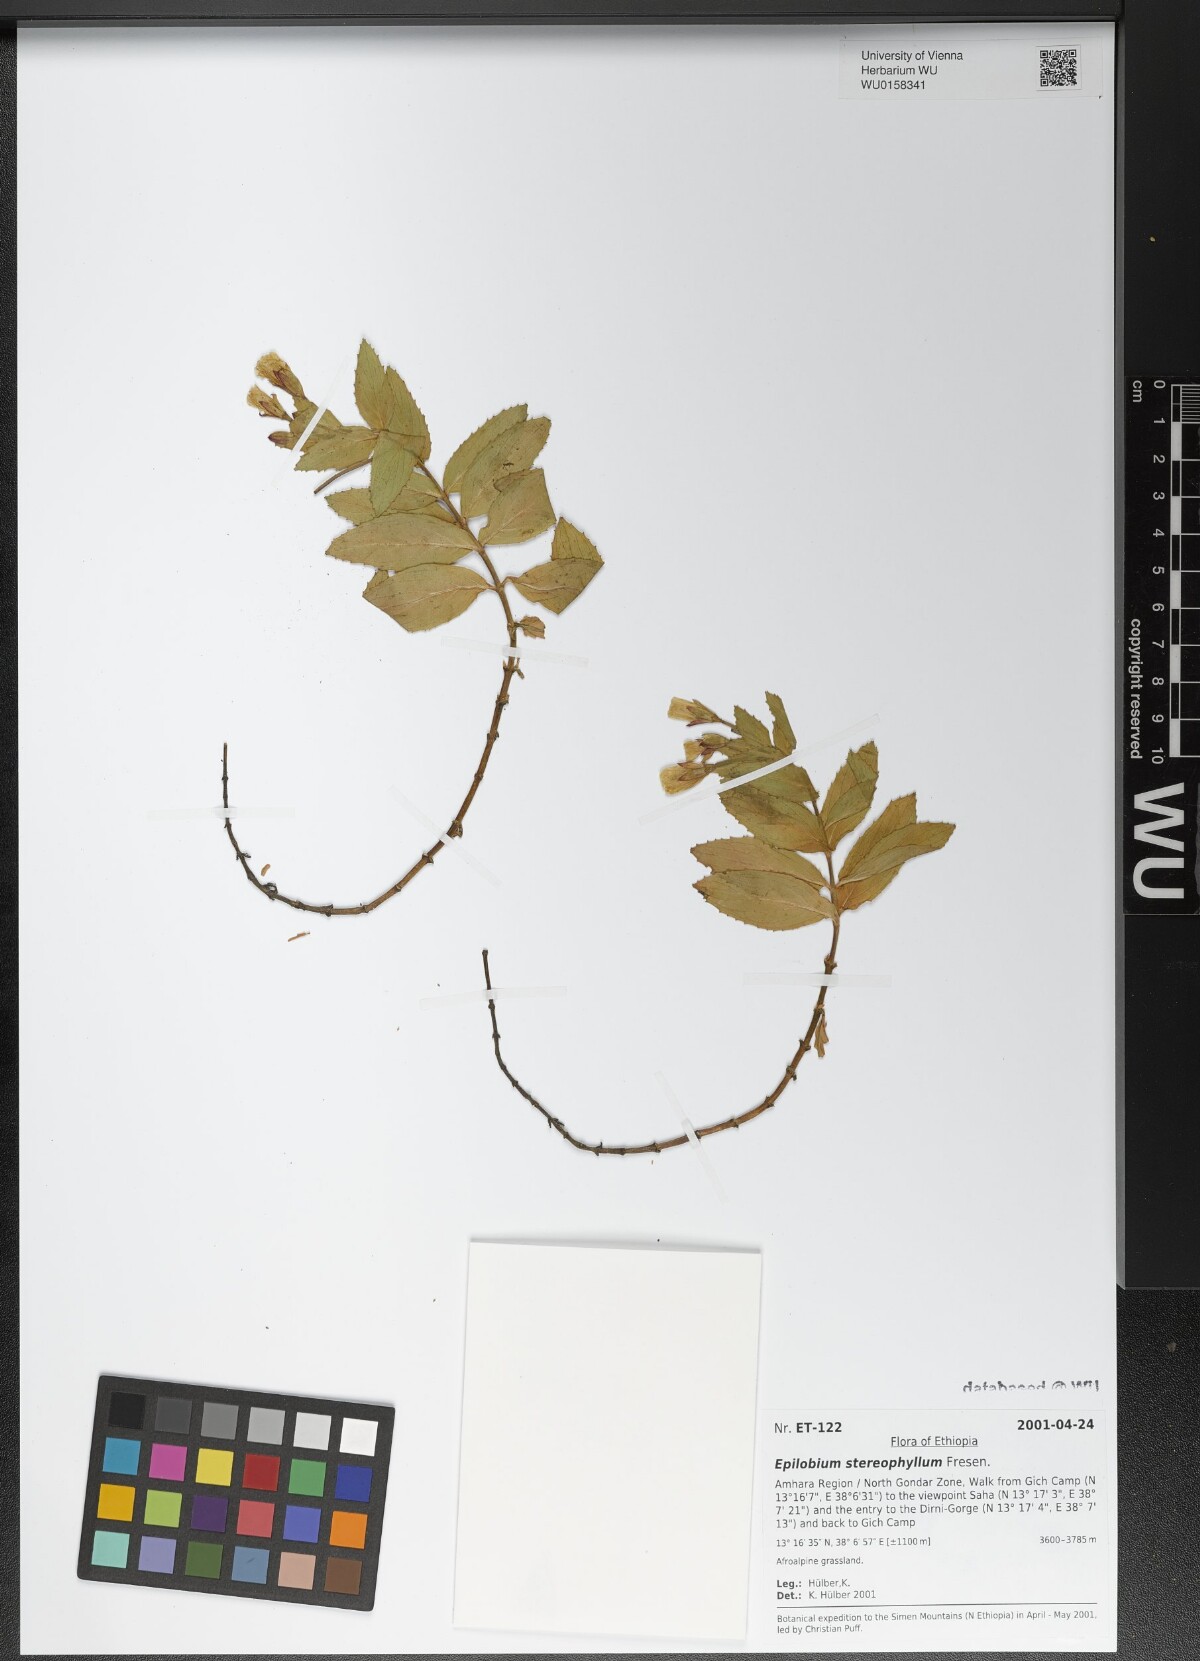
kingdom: Plantae
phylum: Tracheophyta
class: Magnoliopsida
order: Myrtales
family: Onagraceae
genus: Epilobium
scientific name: Epilobium stereophyllum
